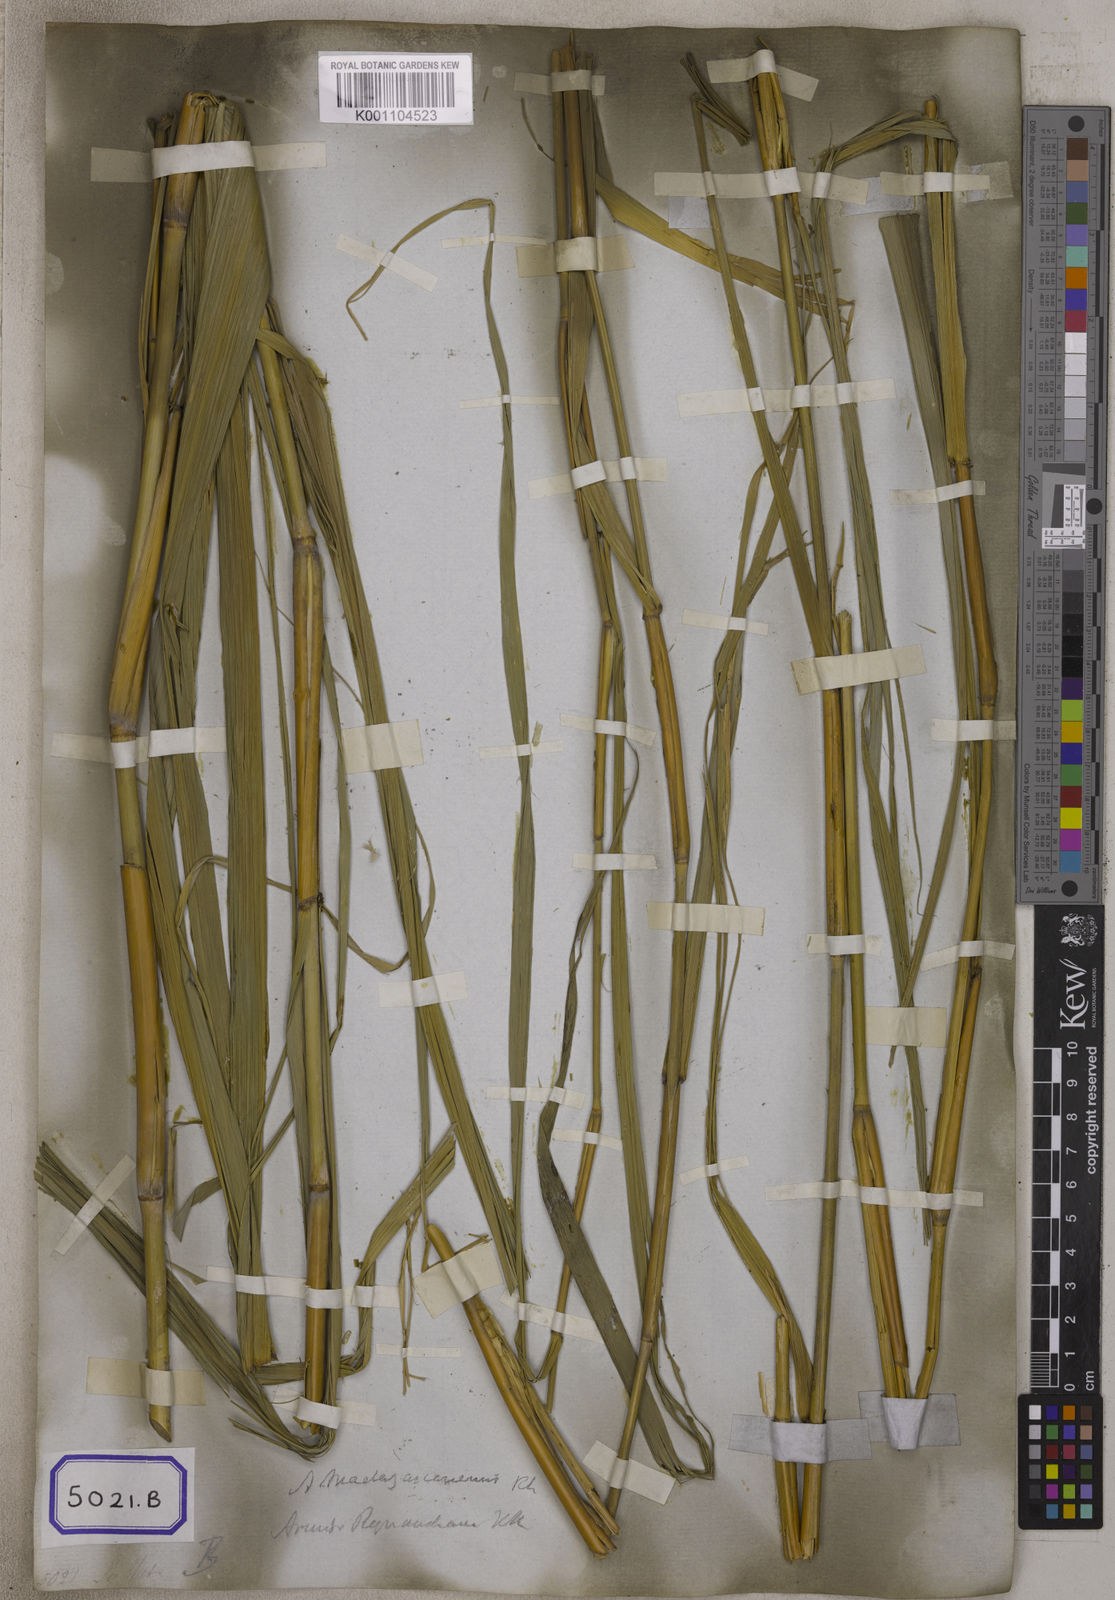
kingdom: Plantae
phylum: Tracheophyta
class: Liliopsida
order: Poales
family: Poaceae
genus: Arundo
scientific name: Arundo
